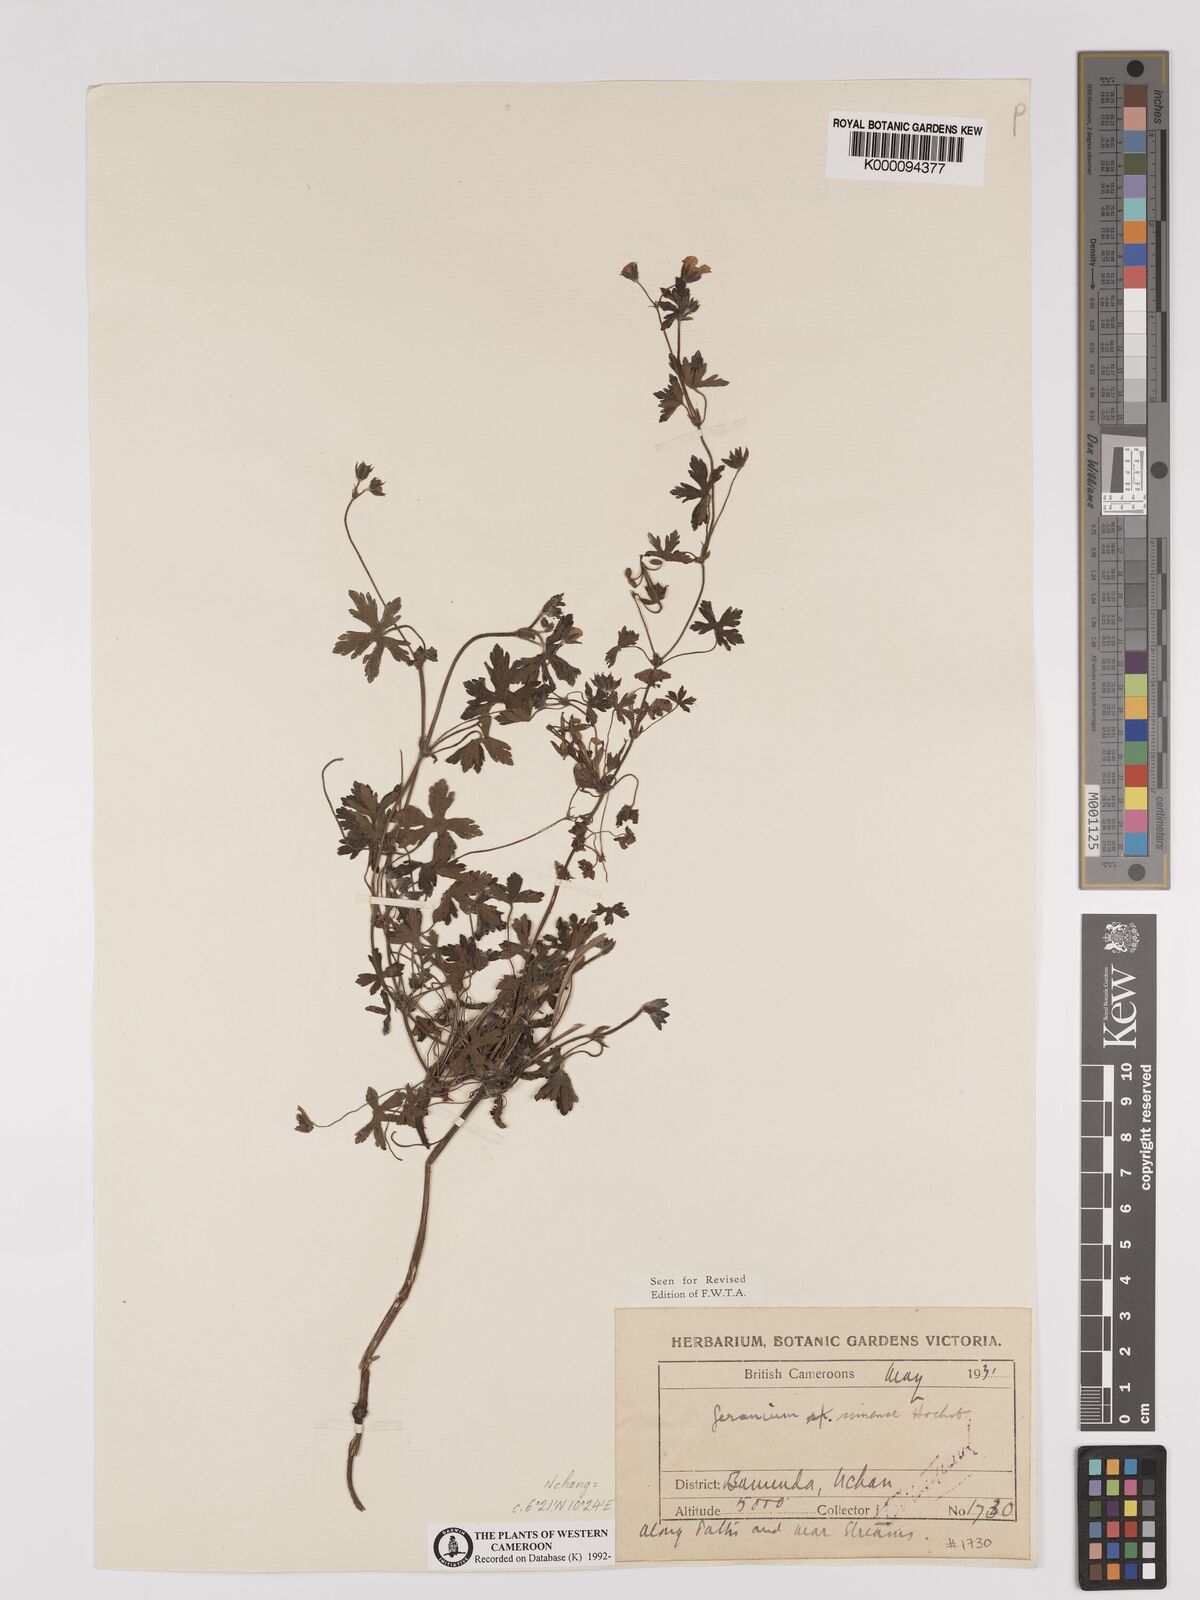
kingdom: Plantae
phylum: Tracheophyta
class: Magnoliopsida
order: Geraniales
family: Geraniaceae
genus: Geranium
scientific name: Geranium arabicum
